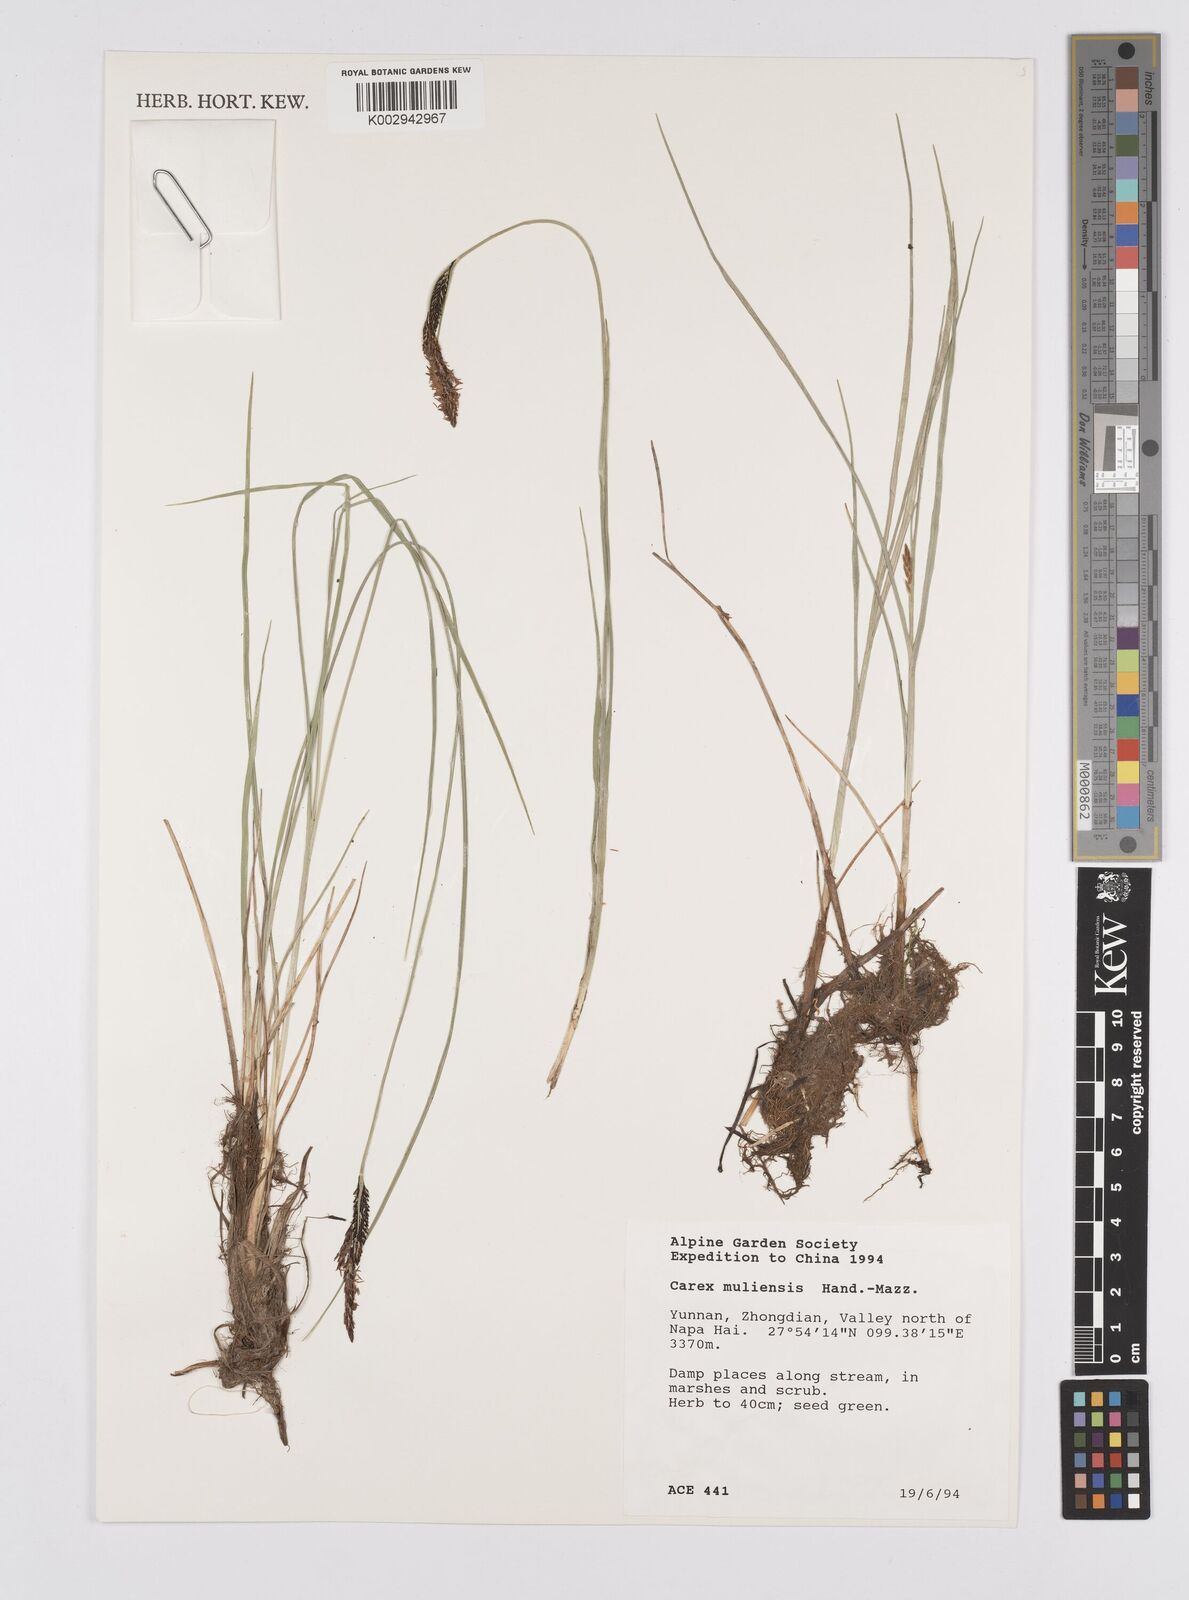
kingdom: Plantae
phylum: Tracheophyta
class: Liliopsida
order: Poales
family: Cyperaceae
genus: Carex
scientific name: Carex muliensis
